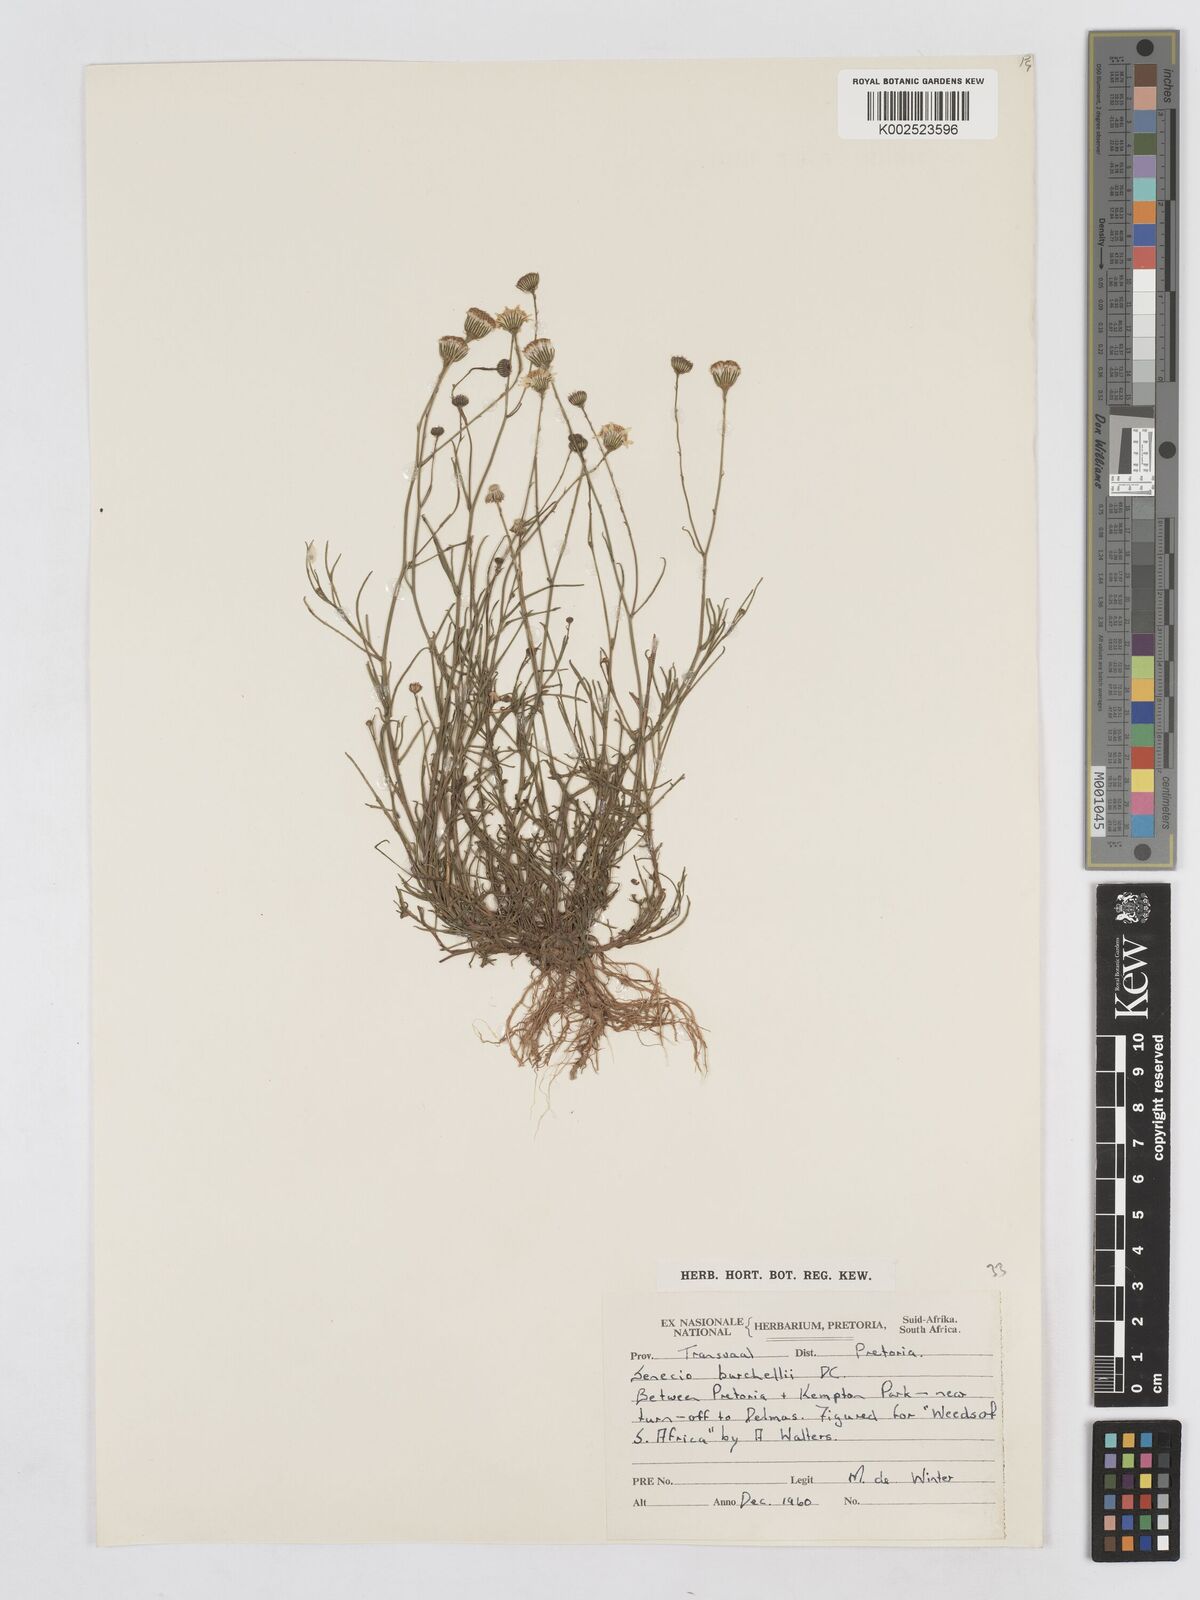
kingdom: Plantae
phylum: Tracheophyta
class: Magnoliopsida
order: Asterales
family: Asteraceae
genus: Senecio
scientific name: Senecio inaequidens
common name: Narrow-leaved ragwort
